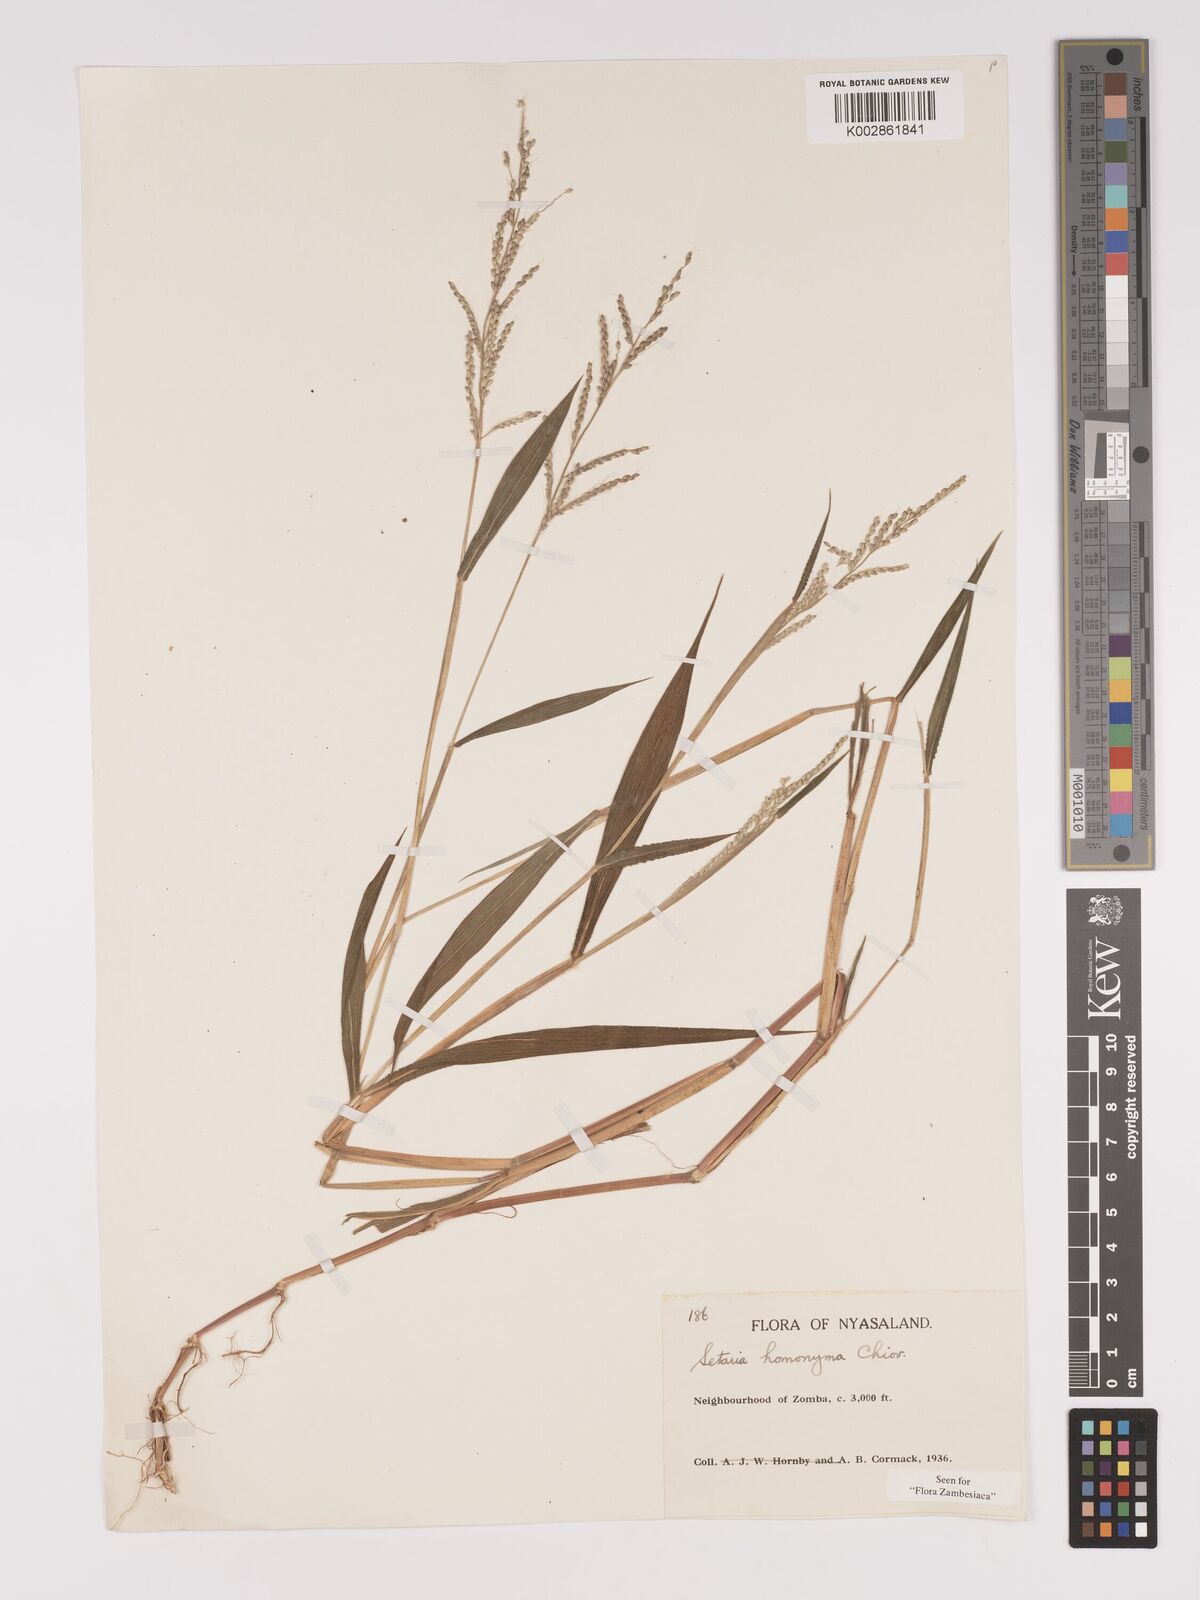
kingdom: Plantae
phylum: Tracheophyta
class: Liliopsida
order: Poales
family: Poaceae
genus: Setaria
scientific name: Setaria homonyma
